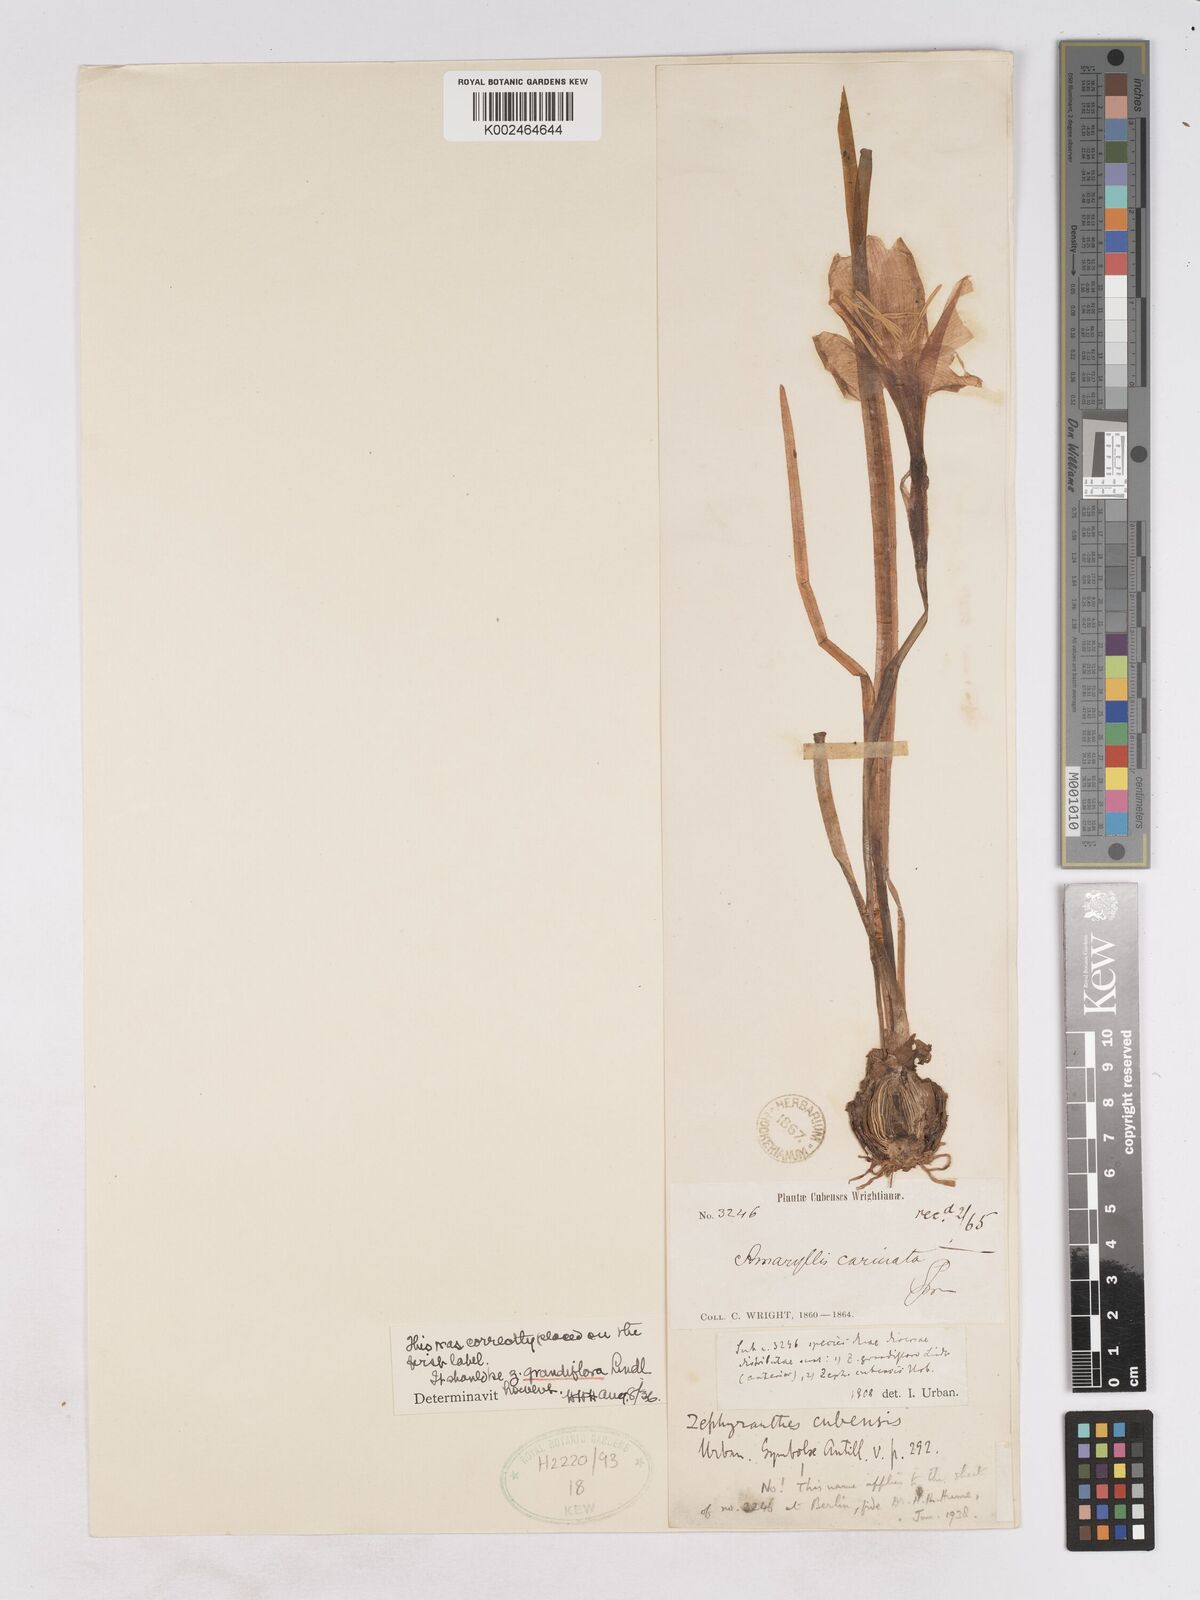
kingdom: Plantae
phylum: Tracheophyta
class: Liliopsida
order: Asparagales
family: Amaryllidaceae
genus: Zephyranthes
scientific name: Zephyranthes minuta
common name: Pink rain lily
